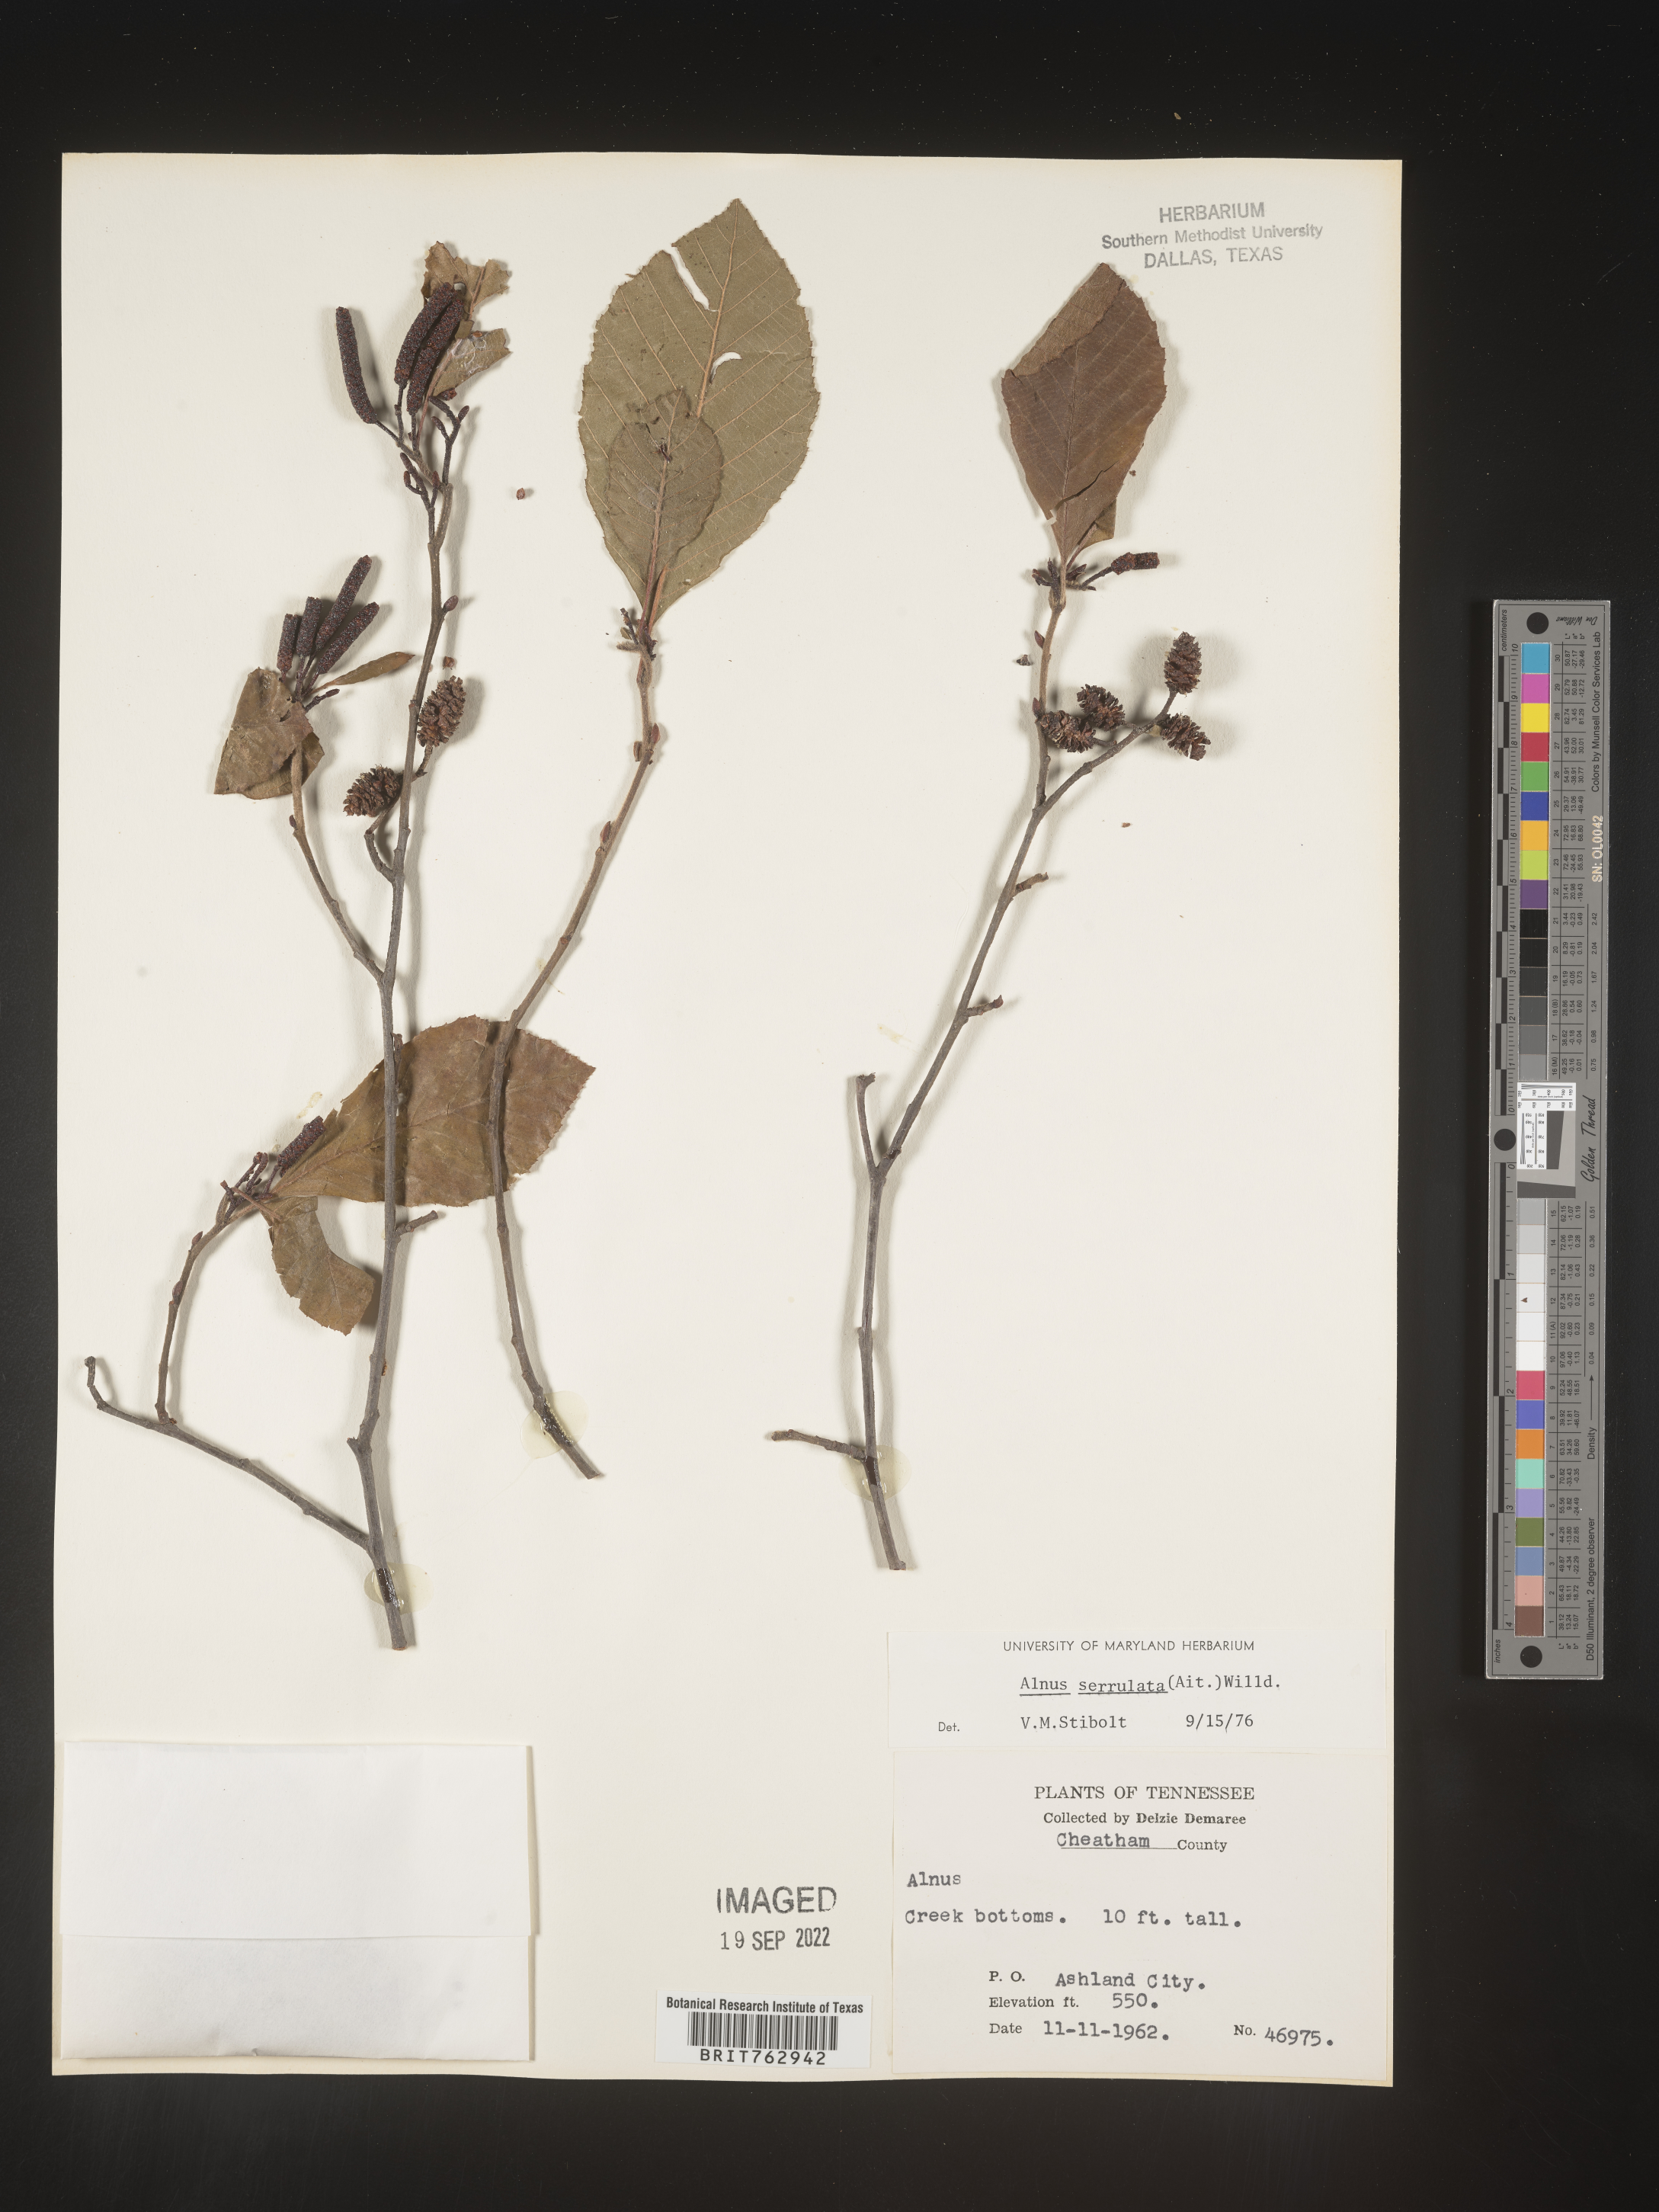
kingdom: Plantae
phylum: Tracheophyta
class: Magnoliopsida
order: Fagales
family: Betulaceae
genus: Alnus
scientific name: Alnus serrulata
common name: Hazel alder
